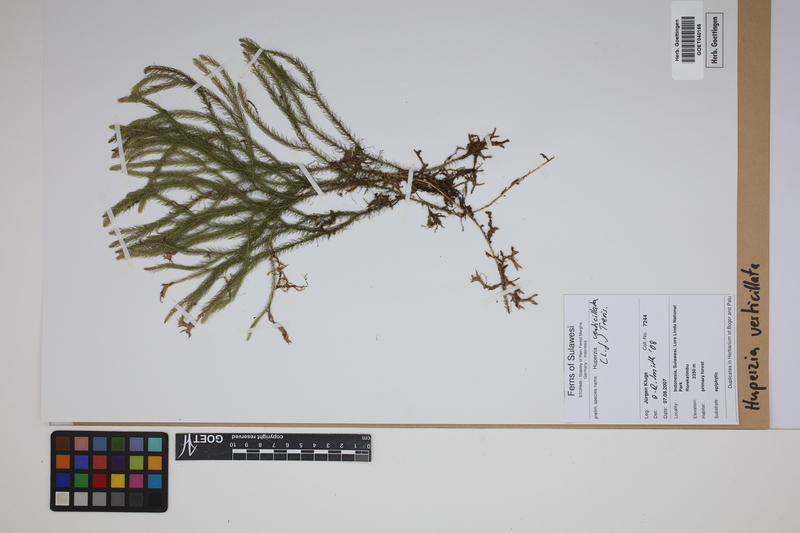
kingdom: Plantae
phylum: Tracheophyta
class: Lycopodiopsida
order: Lycopodiales
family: Lycopodiaceae
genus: Phlegmariurus
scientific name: Phlegmariurus verticillatus
